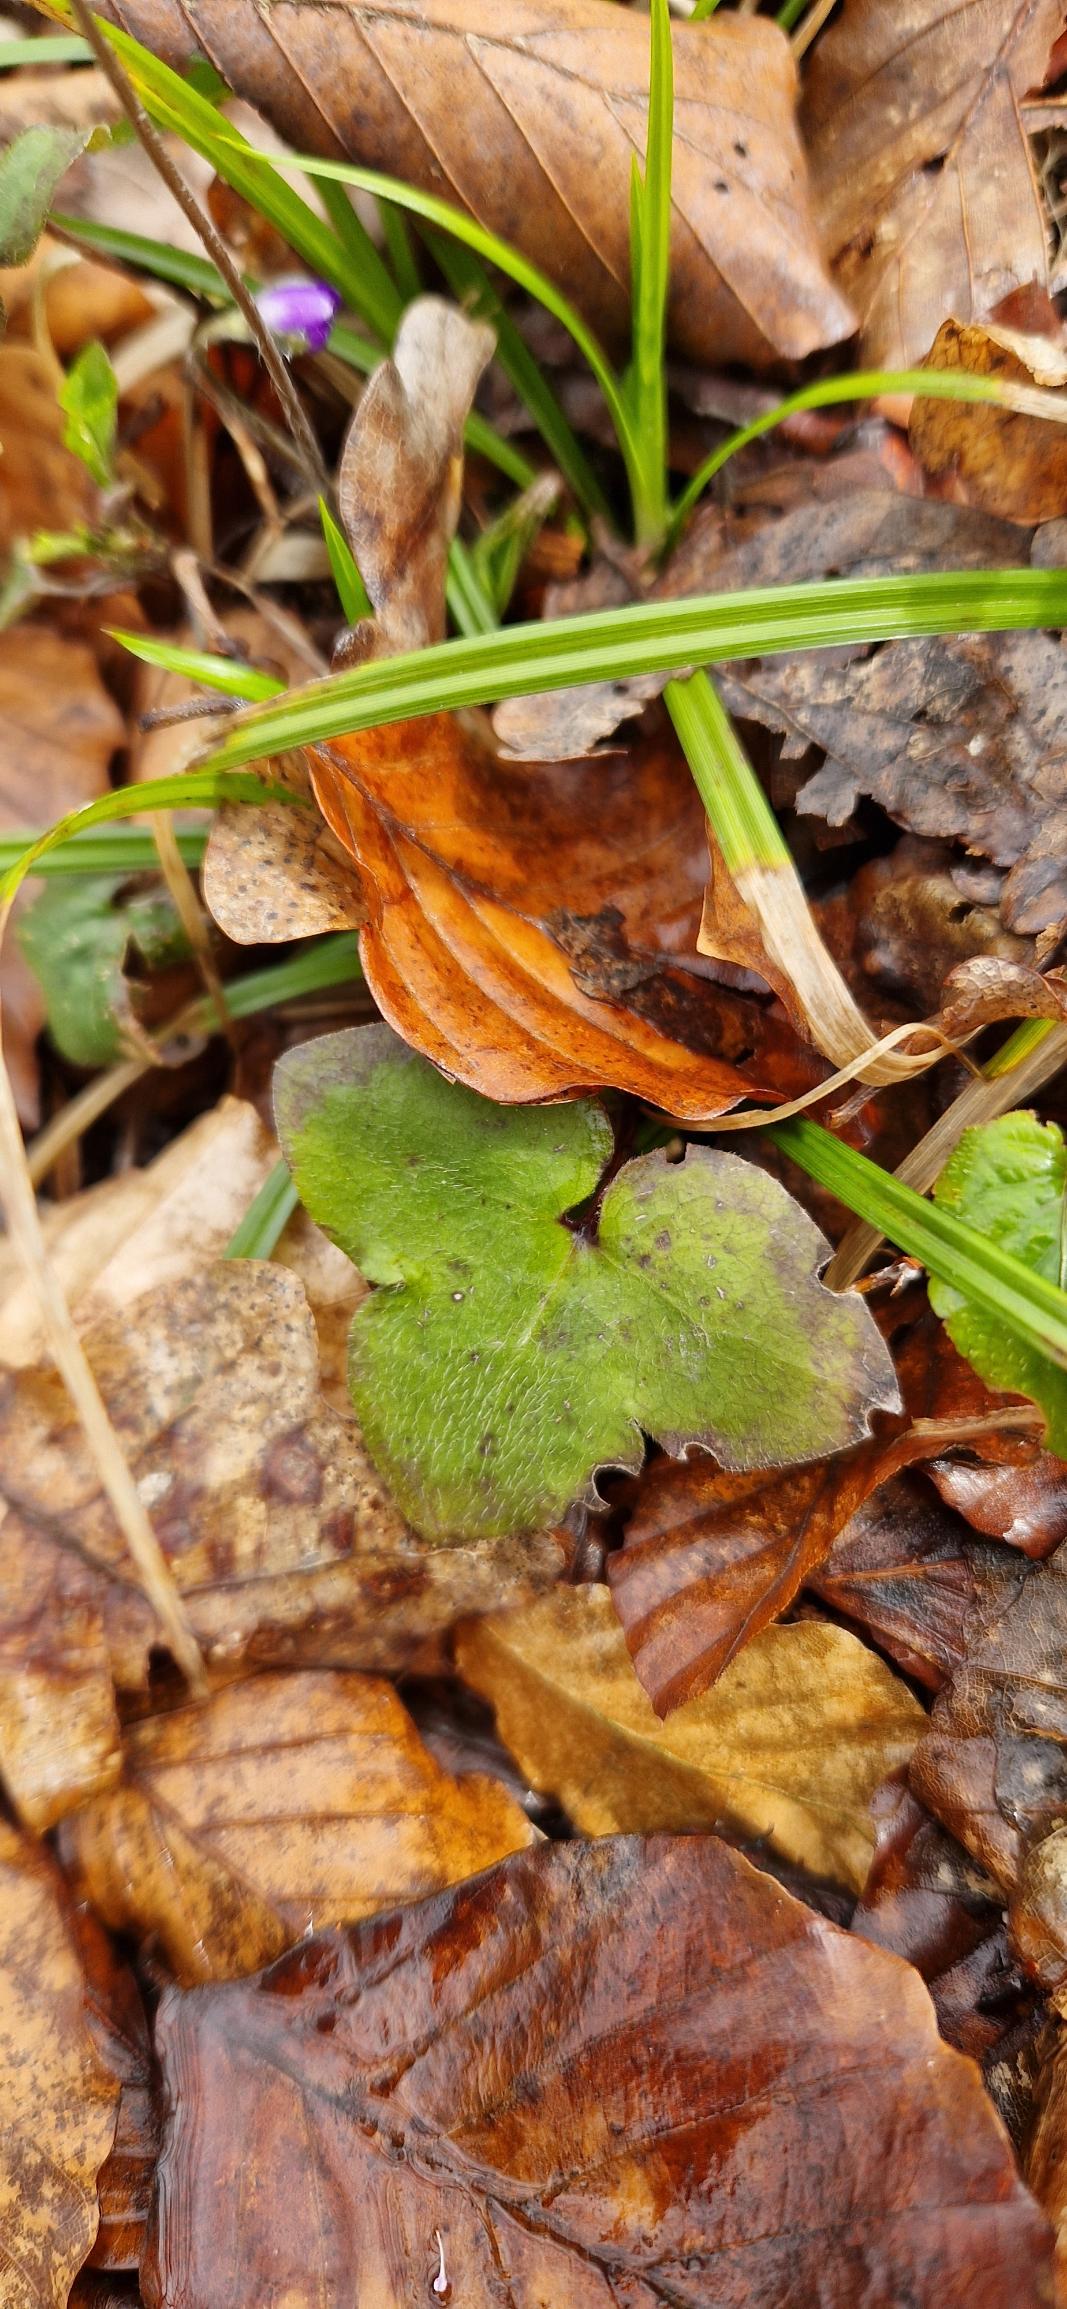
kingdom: Plantae
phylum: Tracheophyta
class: Magnoliopsida
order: Ranunculales
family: Ranunculaceae
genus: Hepatica
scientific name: Hepatica nobilis
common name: Blå anemone
